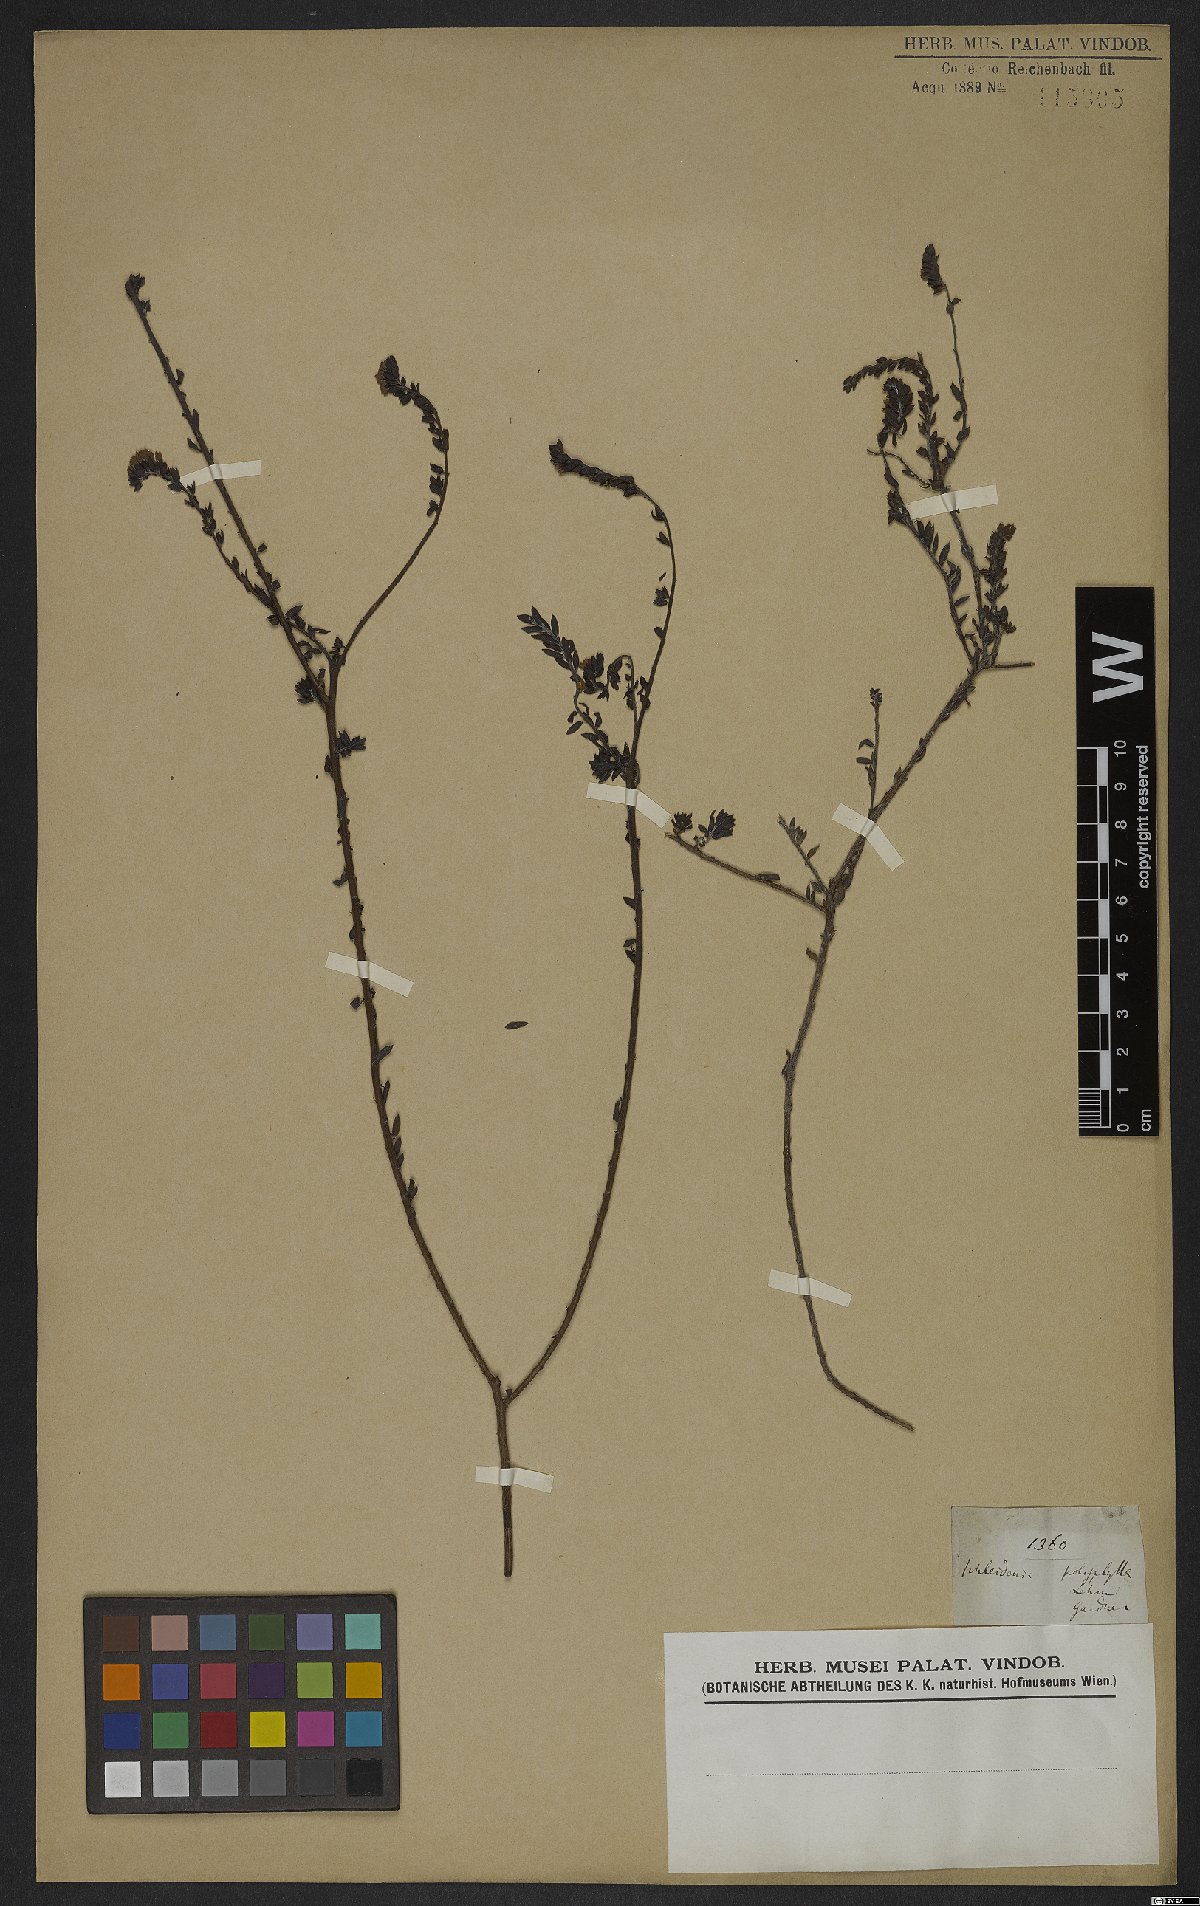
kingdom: Plantae
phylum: Tracheophyta
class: Magnoliopsida
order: Boraginales
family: Heliotropiaceae
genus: Euploca
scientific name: Euploca polyphylla
